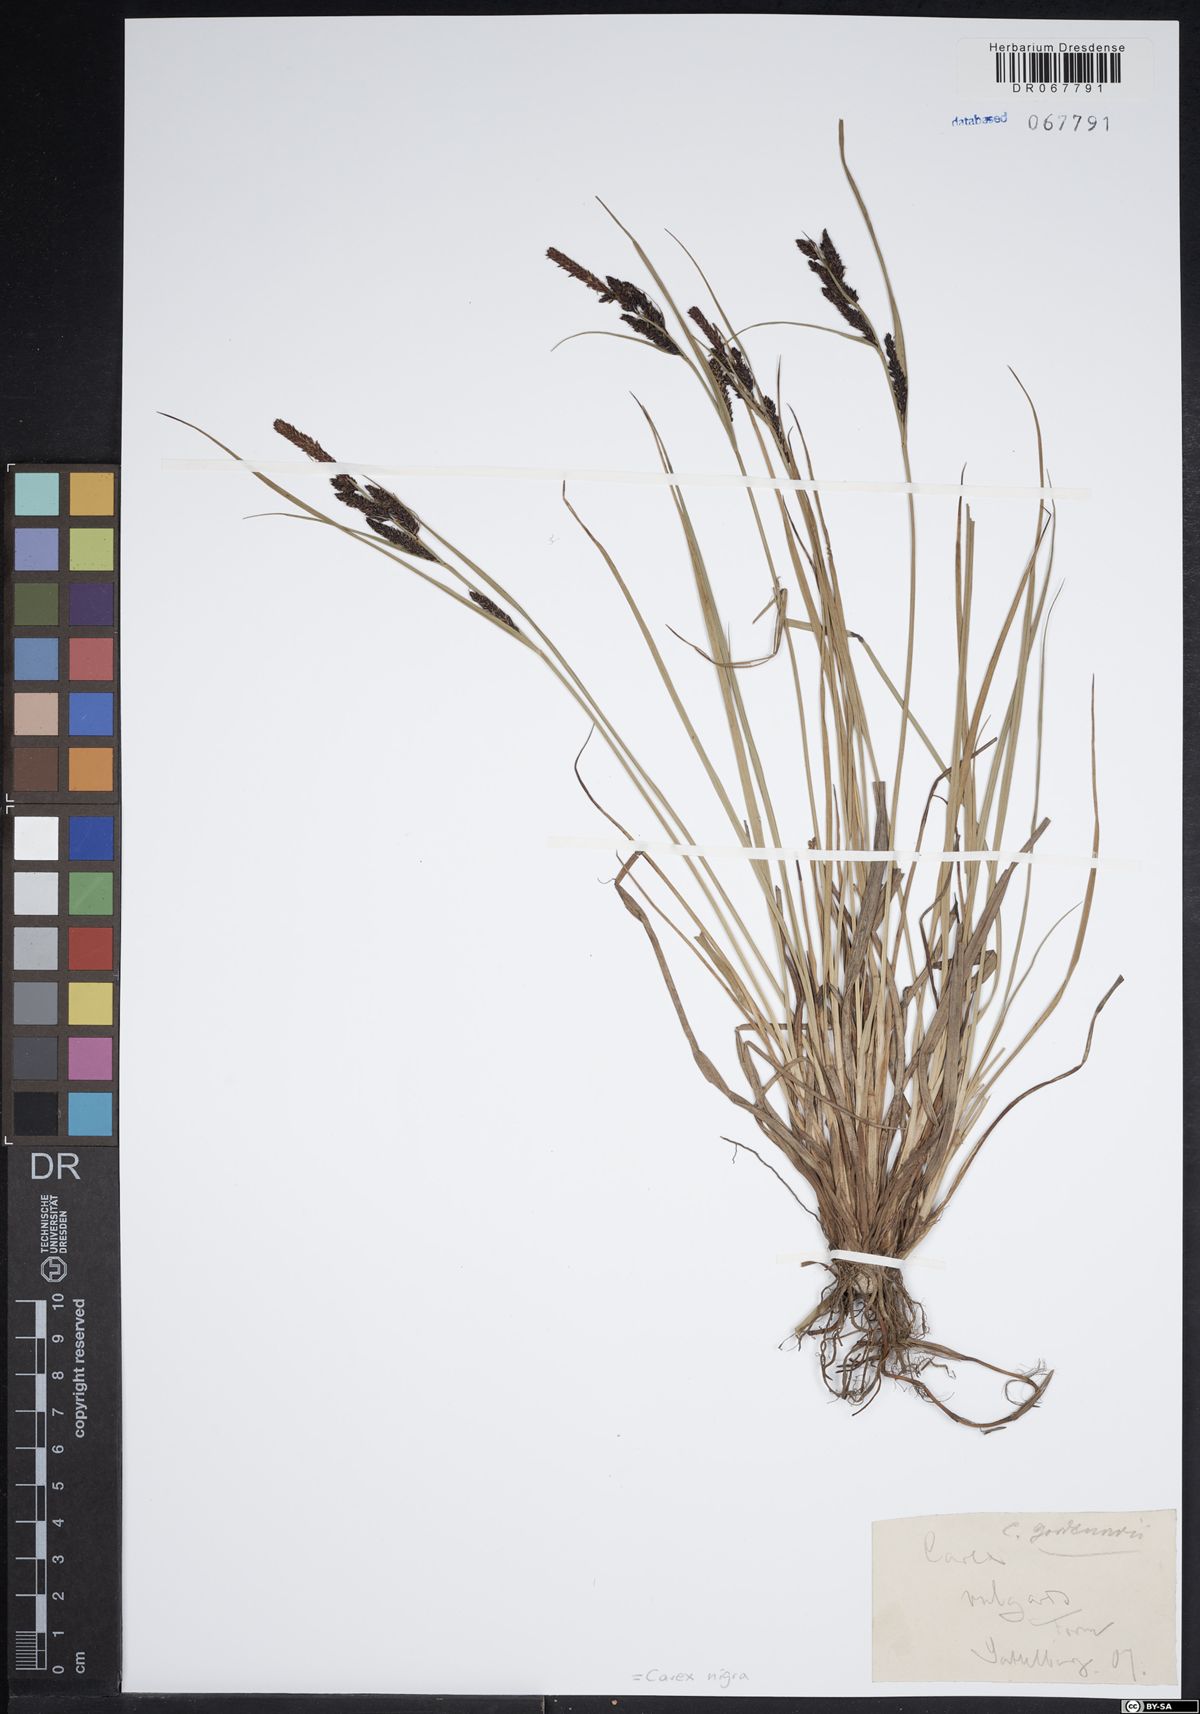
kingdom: Plantae
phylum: Tracheophyta
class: Liliopsida
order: Poales
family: Cyperaceae
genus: Carex
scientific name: Carex nigra
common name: Common sedge
